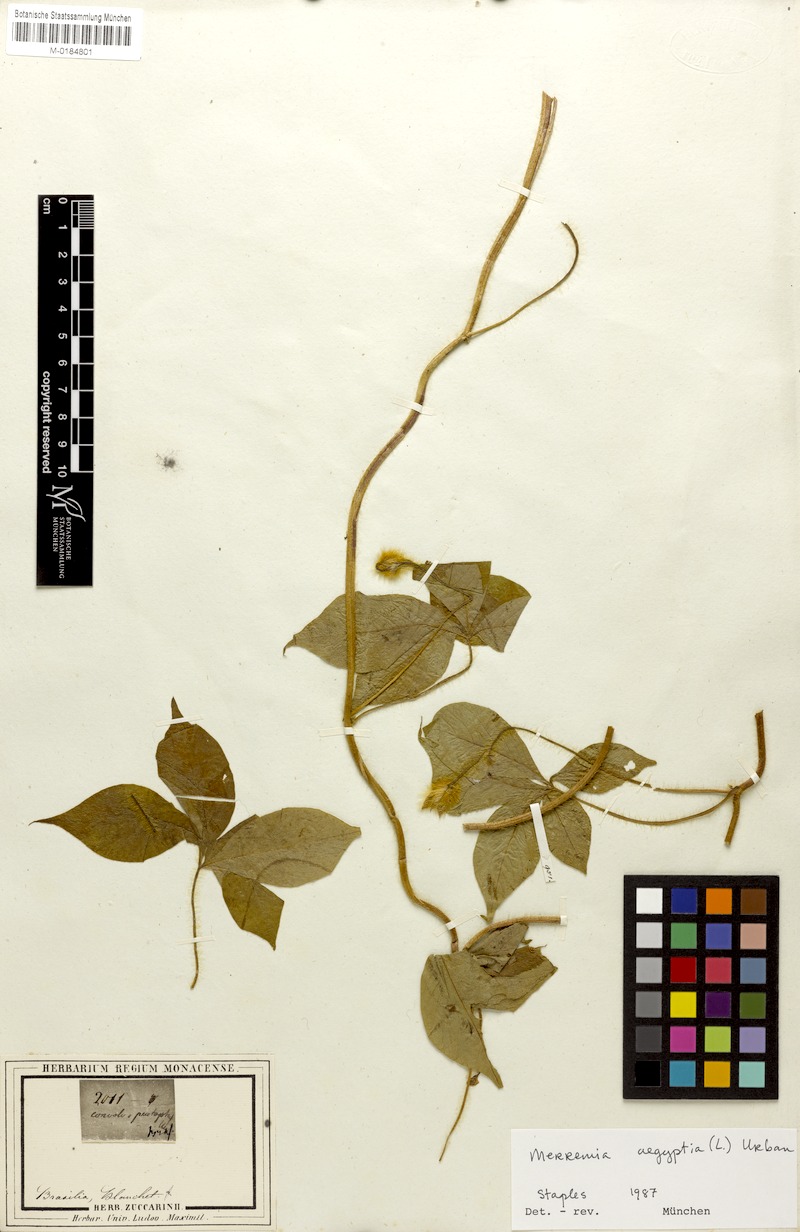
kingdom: Plantae
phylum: Tracheophyta
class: Magnoliopsida
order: Solanales
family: Convolvulaceae
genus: Distimake
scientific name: Distimake aegyptius
